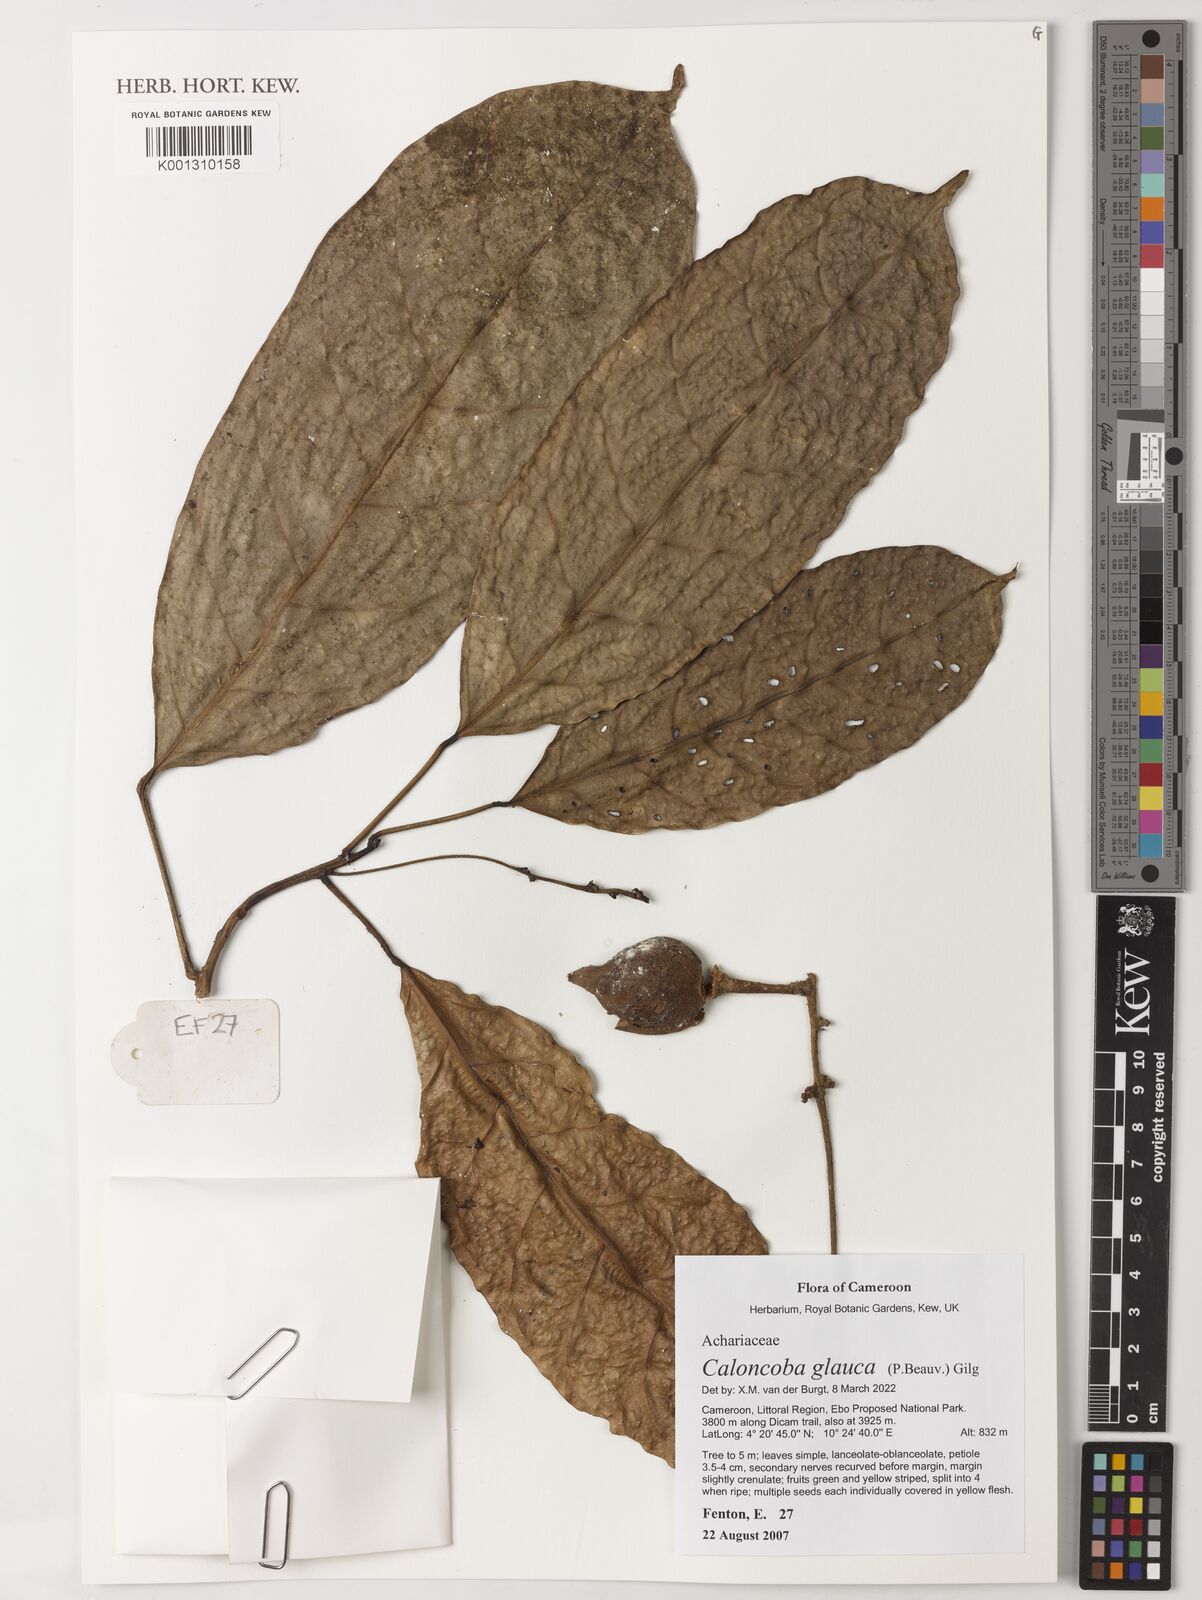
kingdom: Plantae
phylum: Tracheophyta
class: Magnoliopsida
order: Malpighiales
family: Achariaceae
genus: Caloncoba
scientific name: Caloncoba glauca
